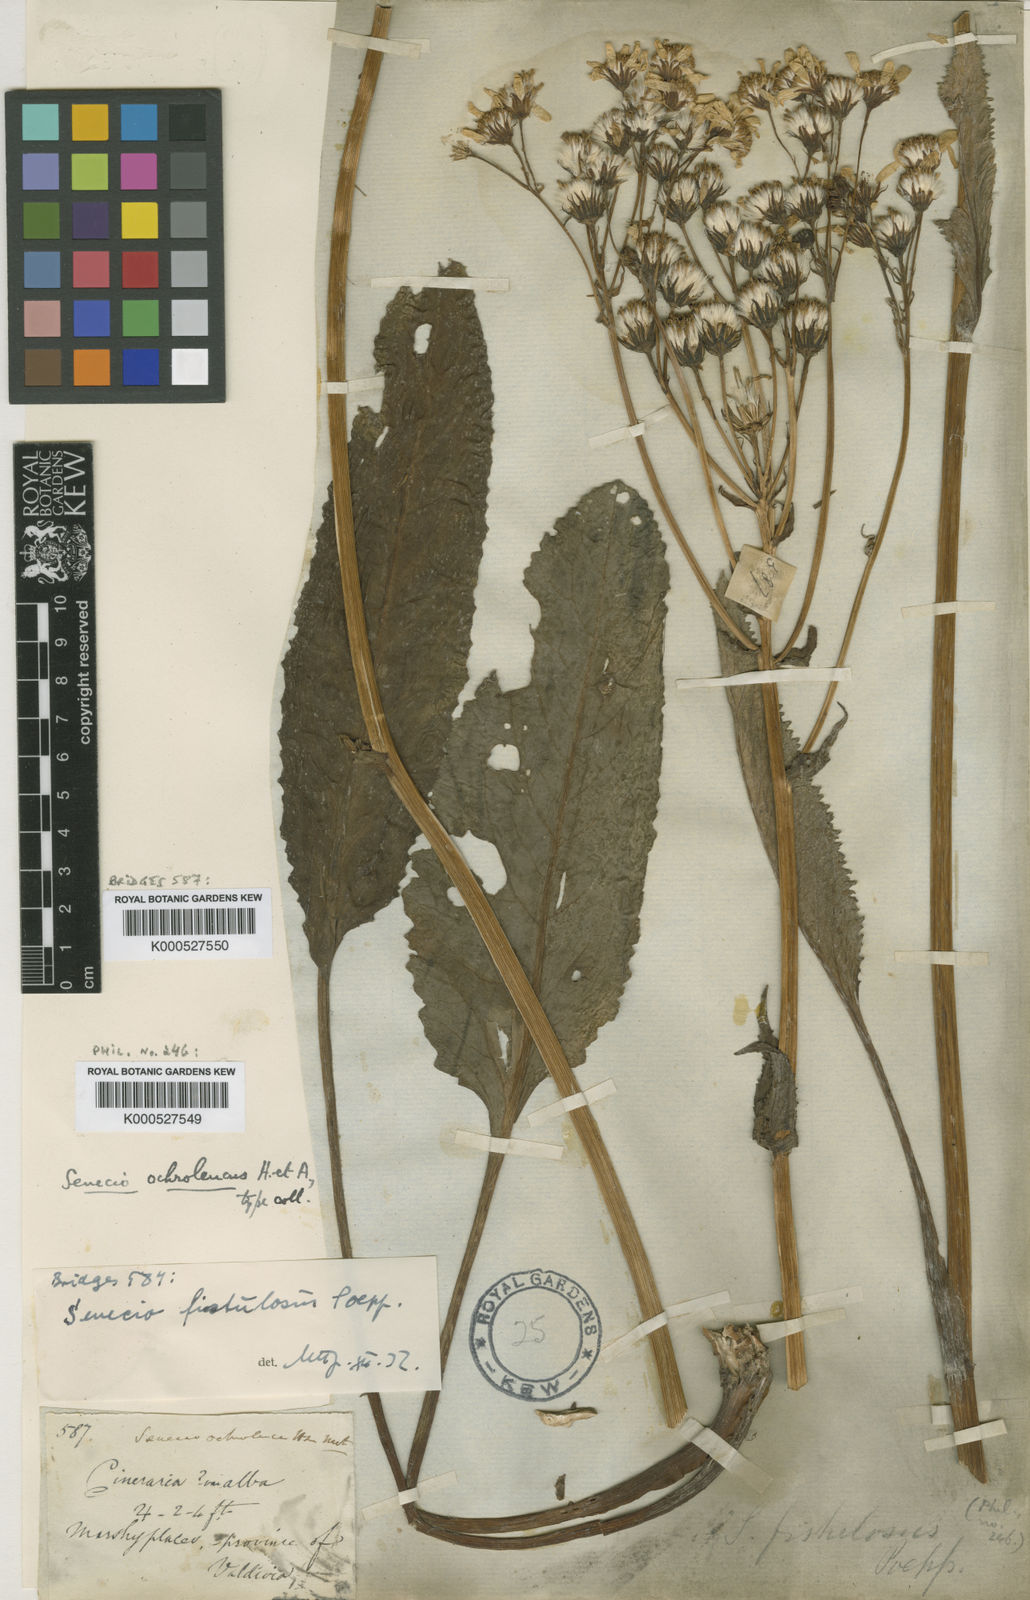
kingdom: Plantae
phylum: Tracheophyta
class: Magnoliopsida
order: Asterales
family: Asteraceae
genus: Senecio
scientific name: Senecio fistulosus
